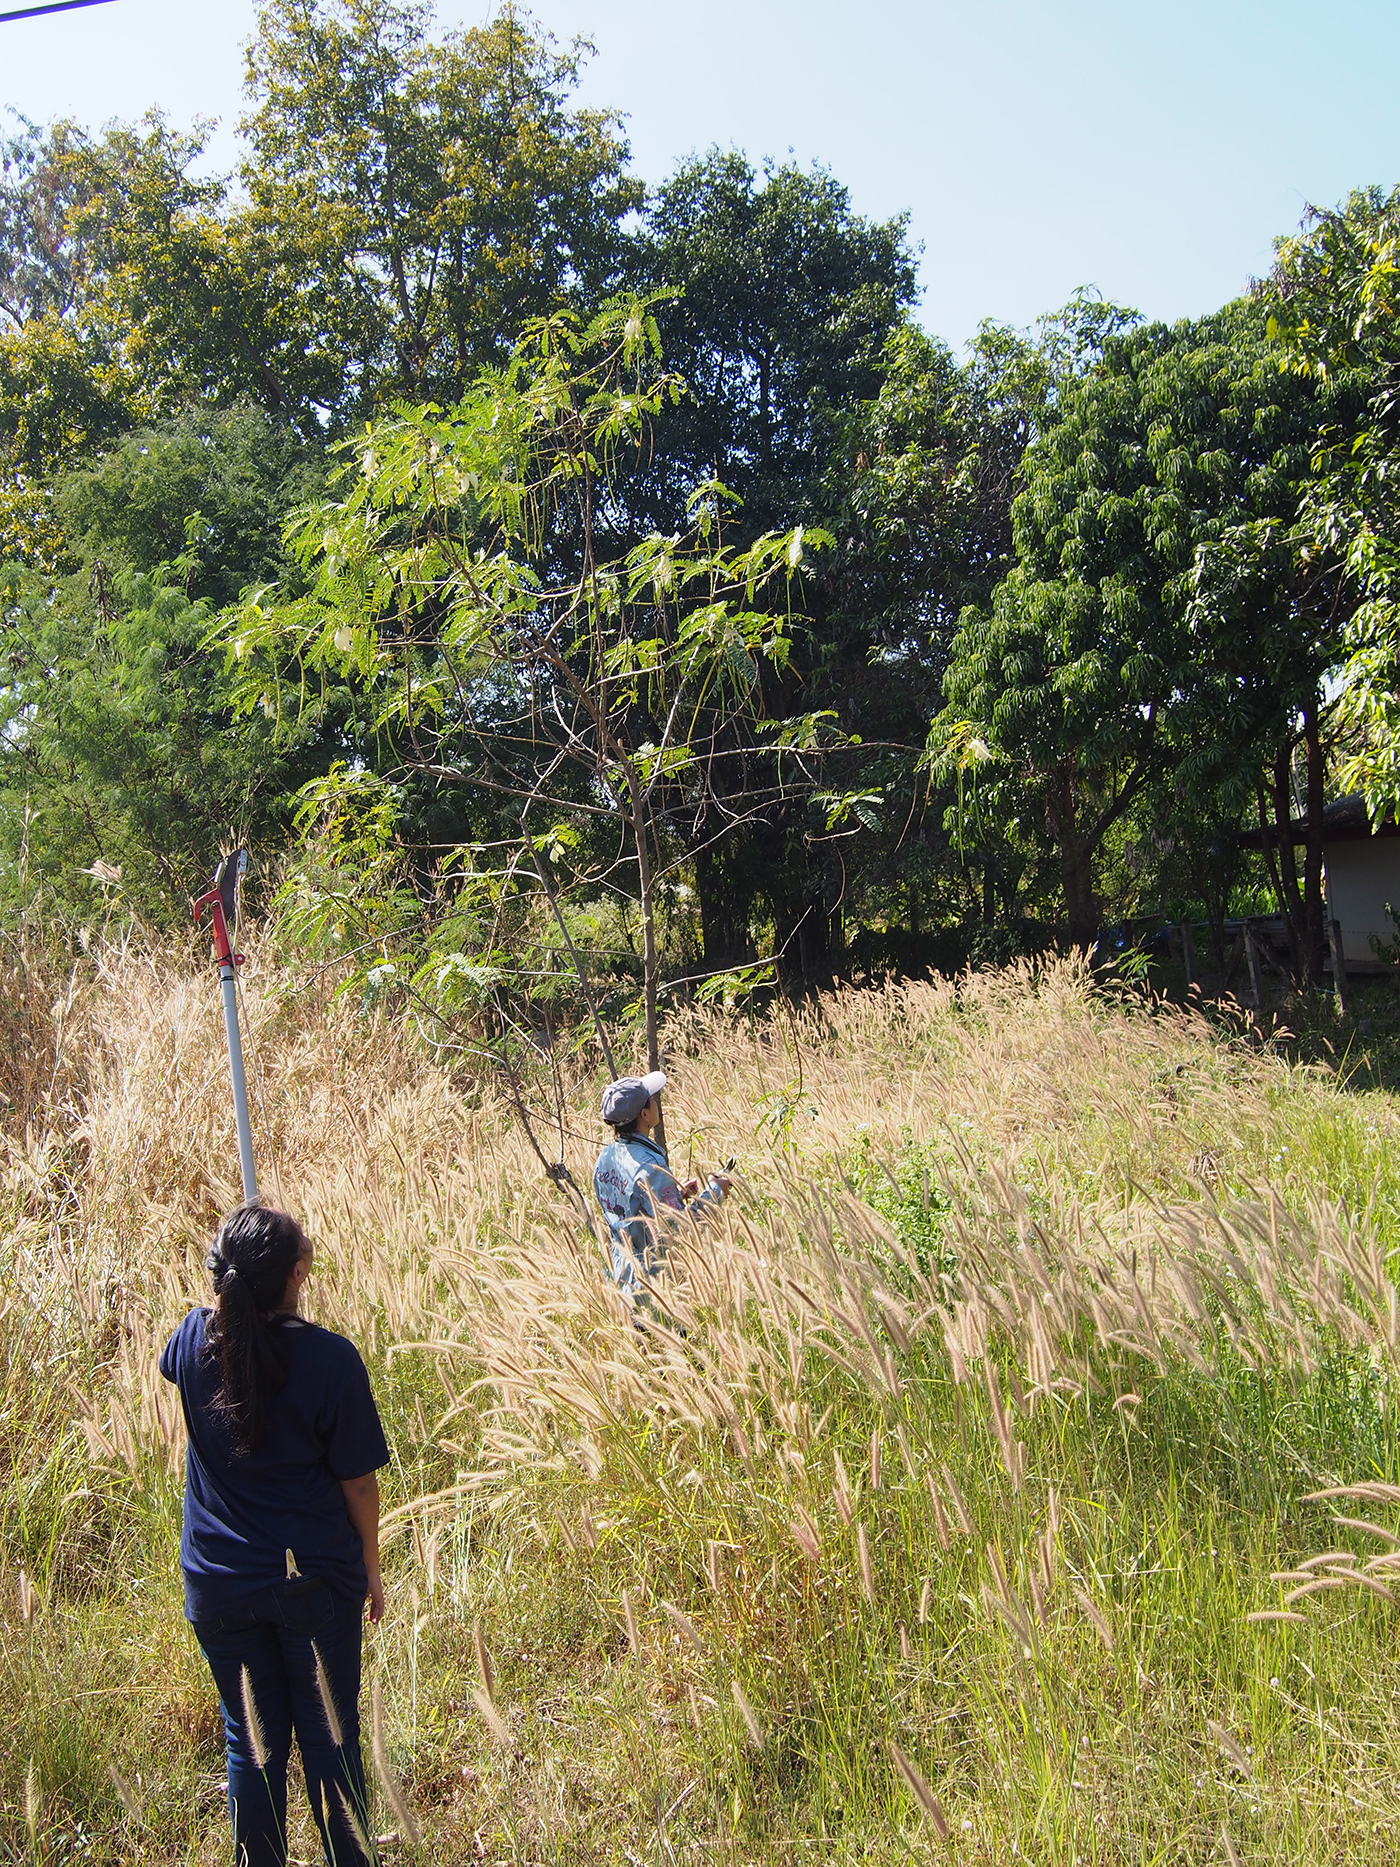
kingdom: Plantae
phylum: Tracheophyta
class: Magnoliopsida
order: Fabales
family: Fabaceae
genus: Sesbania
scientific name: Sesbania grandiflora
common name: Vegetable-hummingbird
